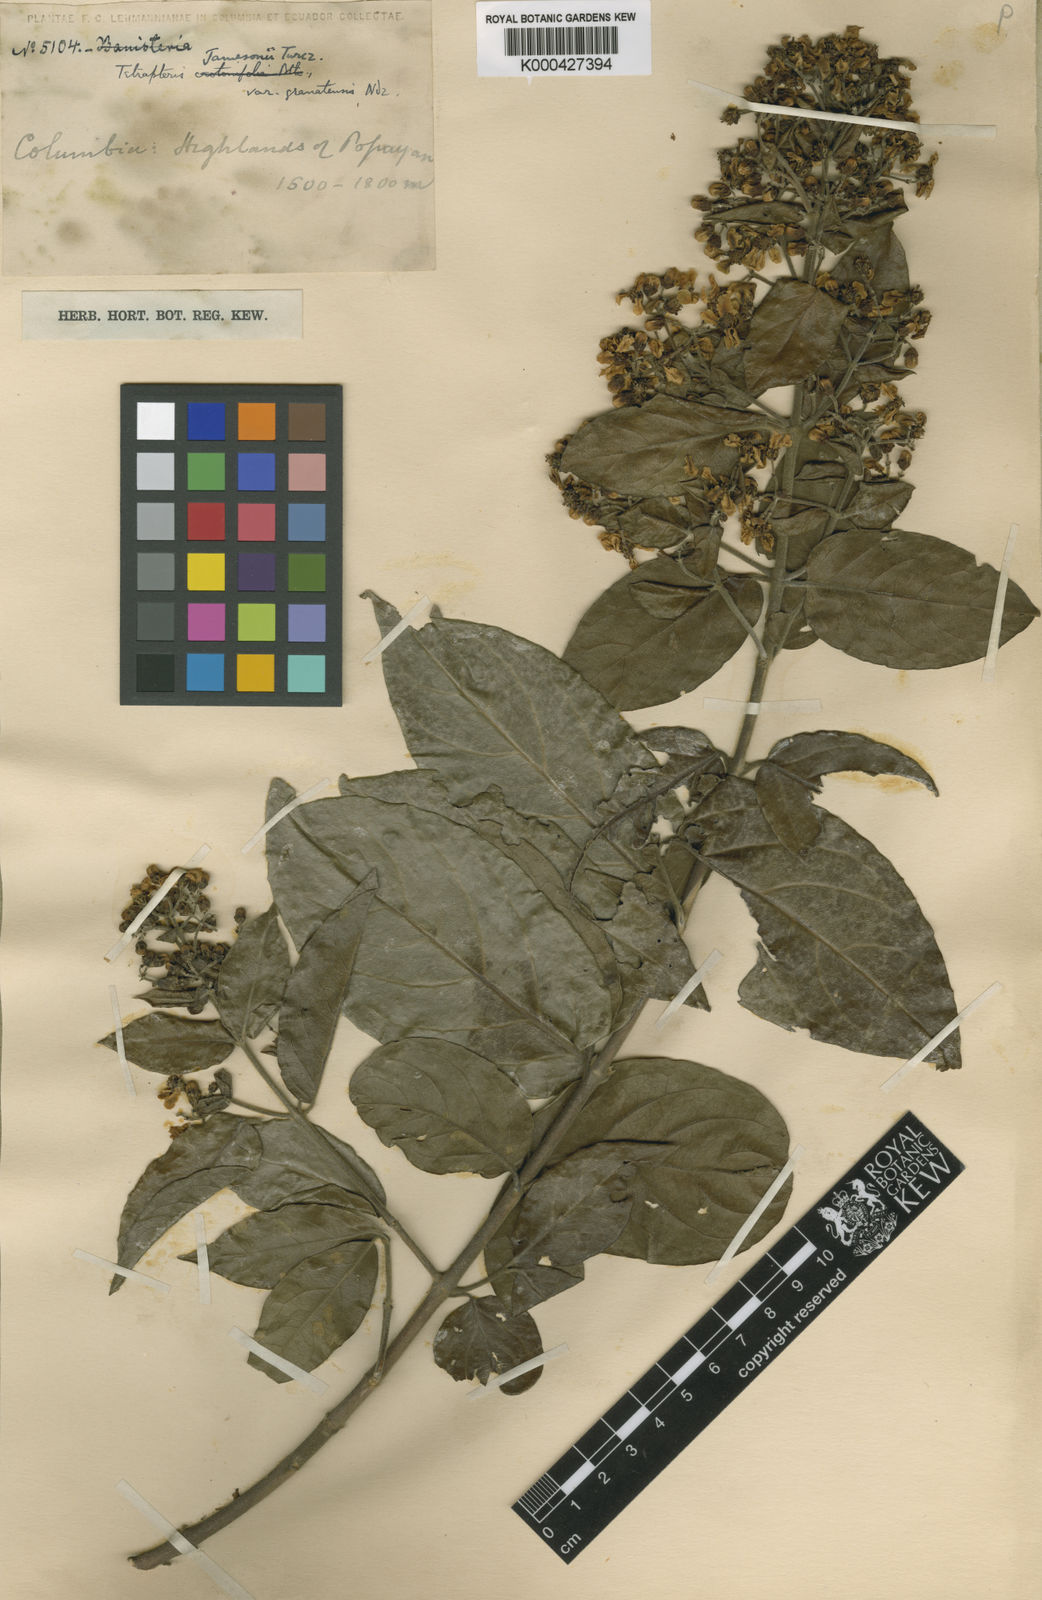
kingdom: Plantae
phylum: Tracheophyta
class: Magnoliopsida
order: Malpighiales
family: Malpighiaceae
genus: Tetrapterys
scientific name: Tetrapterys benthamii
